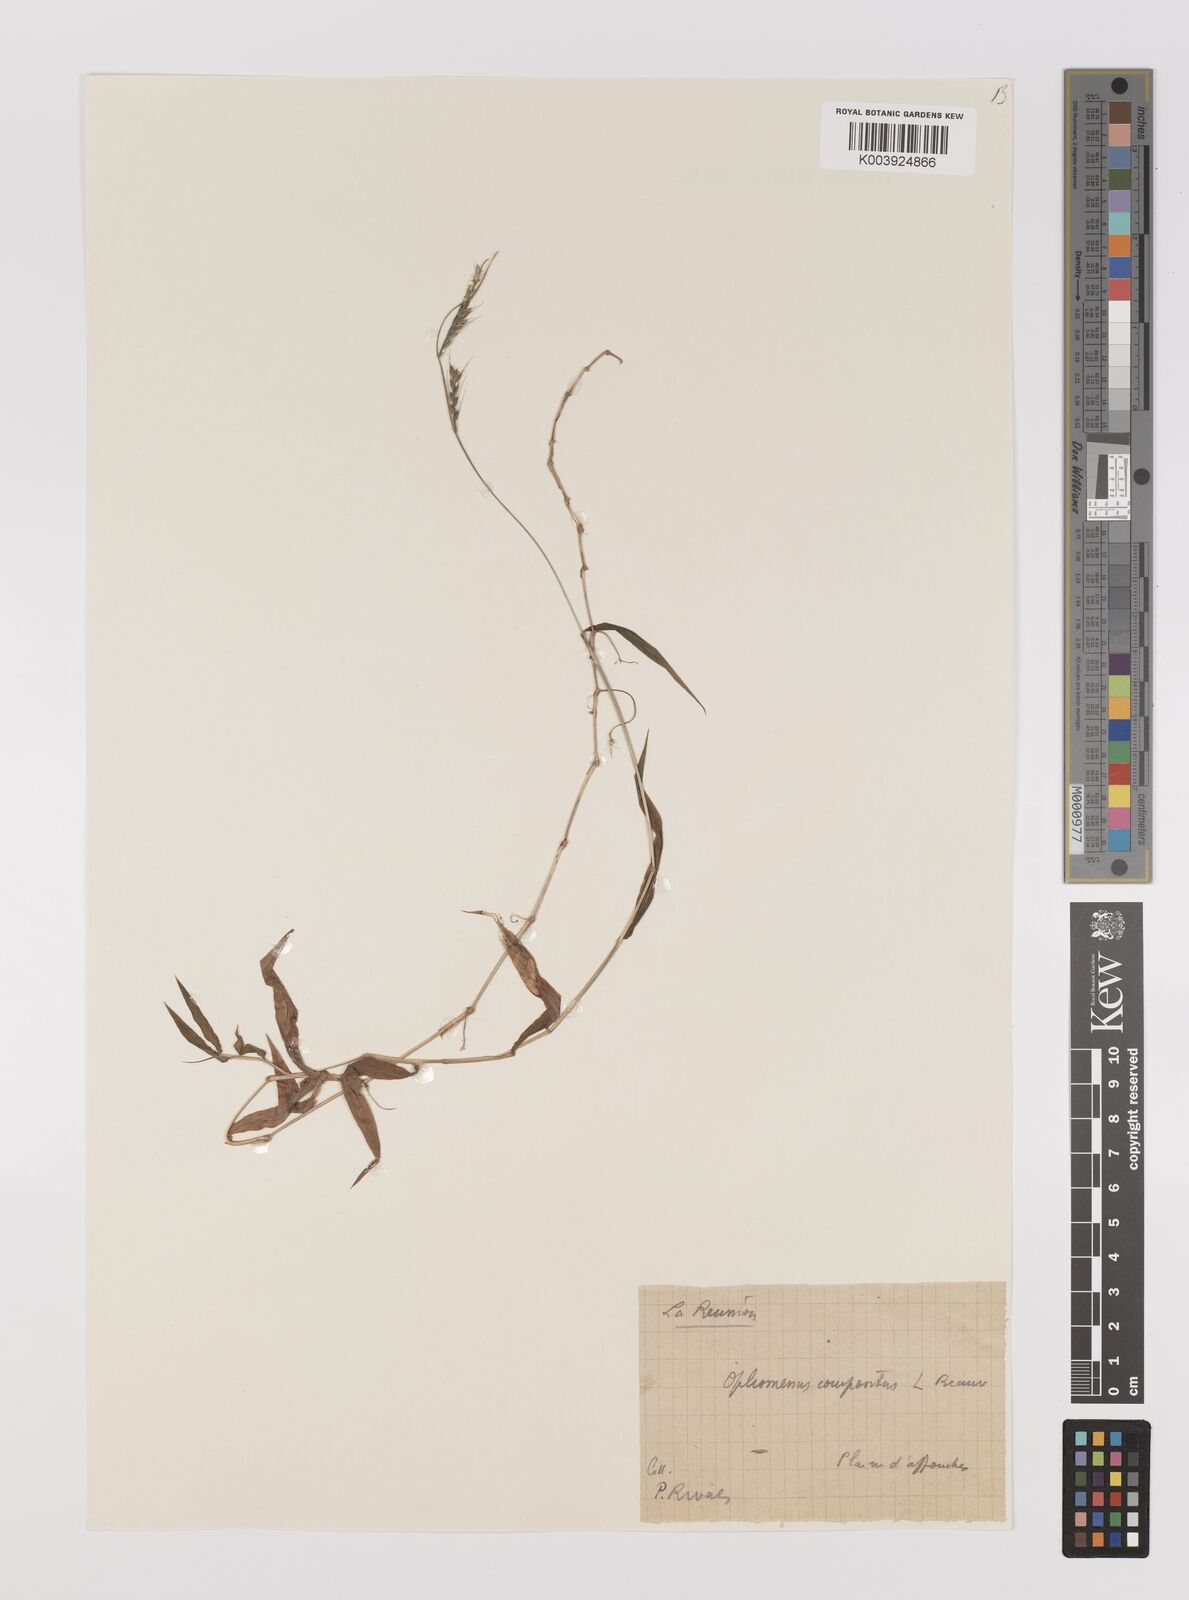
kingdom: Plantae
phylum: Tracheophyta
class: Liliopsida
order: Poales
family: Poaceae
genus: Oplismenus
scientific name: Oplismenus compositus
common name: Running mountain grass
